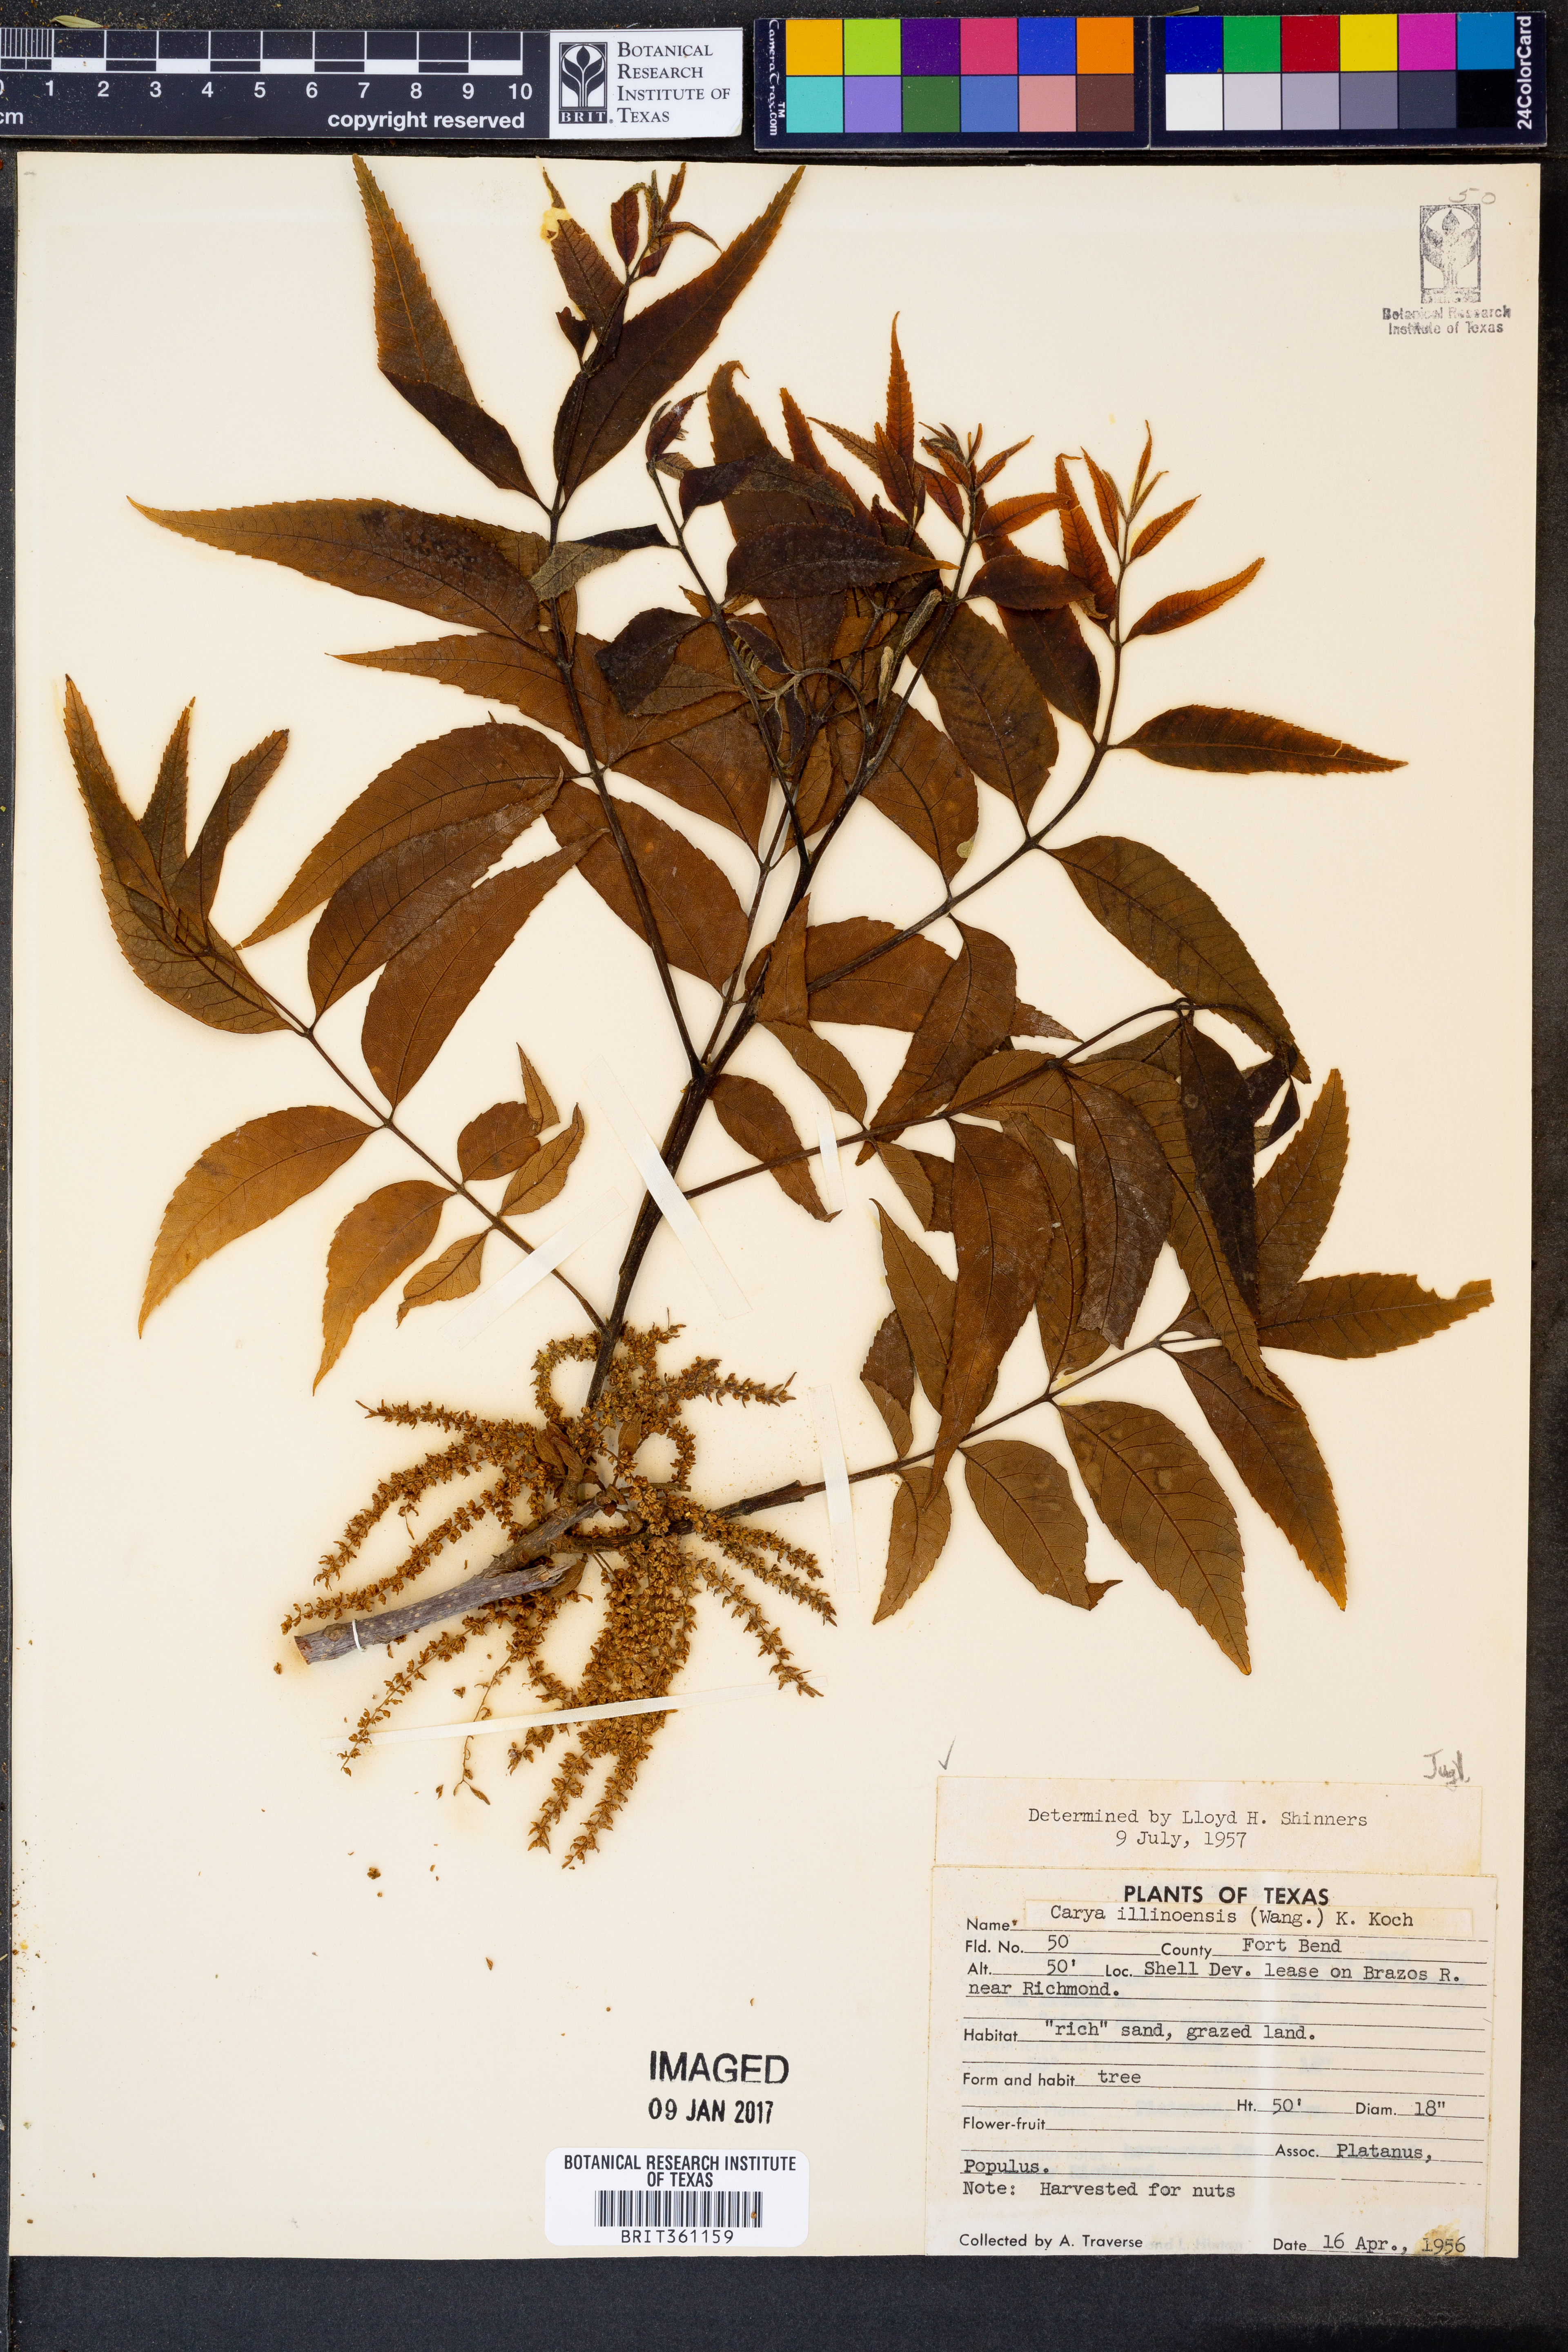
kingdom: Plantae
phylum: Tracheophyta
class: Magnoliopsida
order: Fagales
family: Juglandaceae
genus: Carya
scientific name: Carya illinoinensis
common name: Pecan
